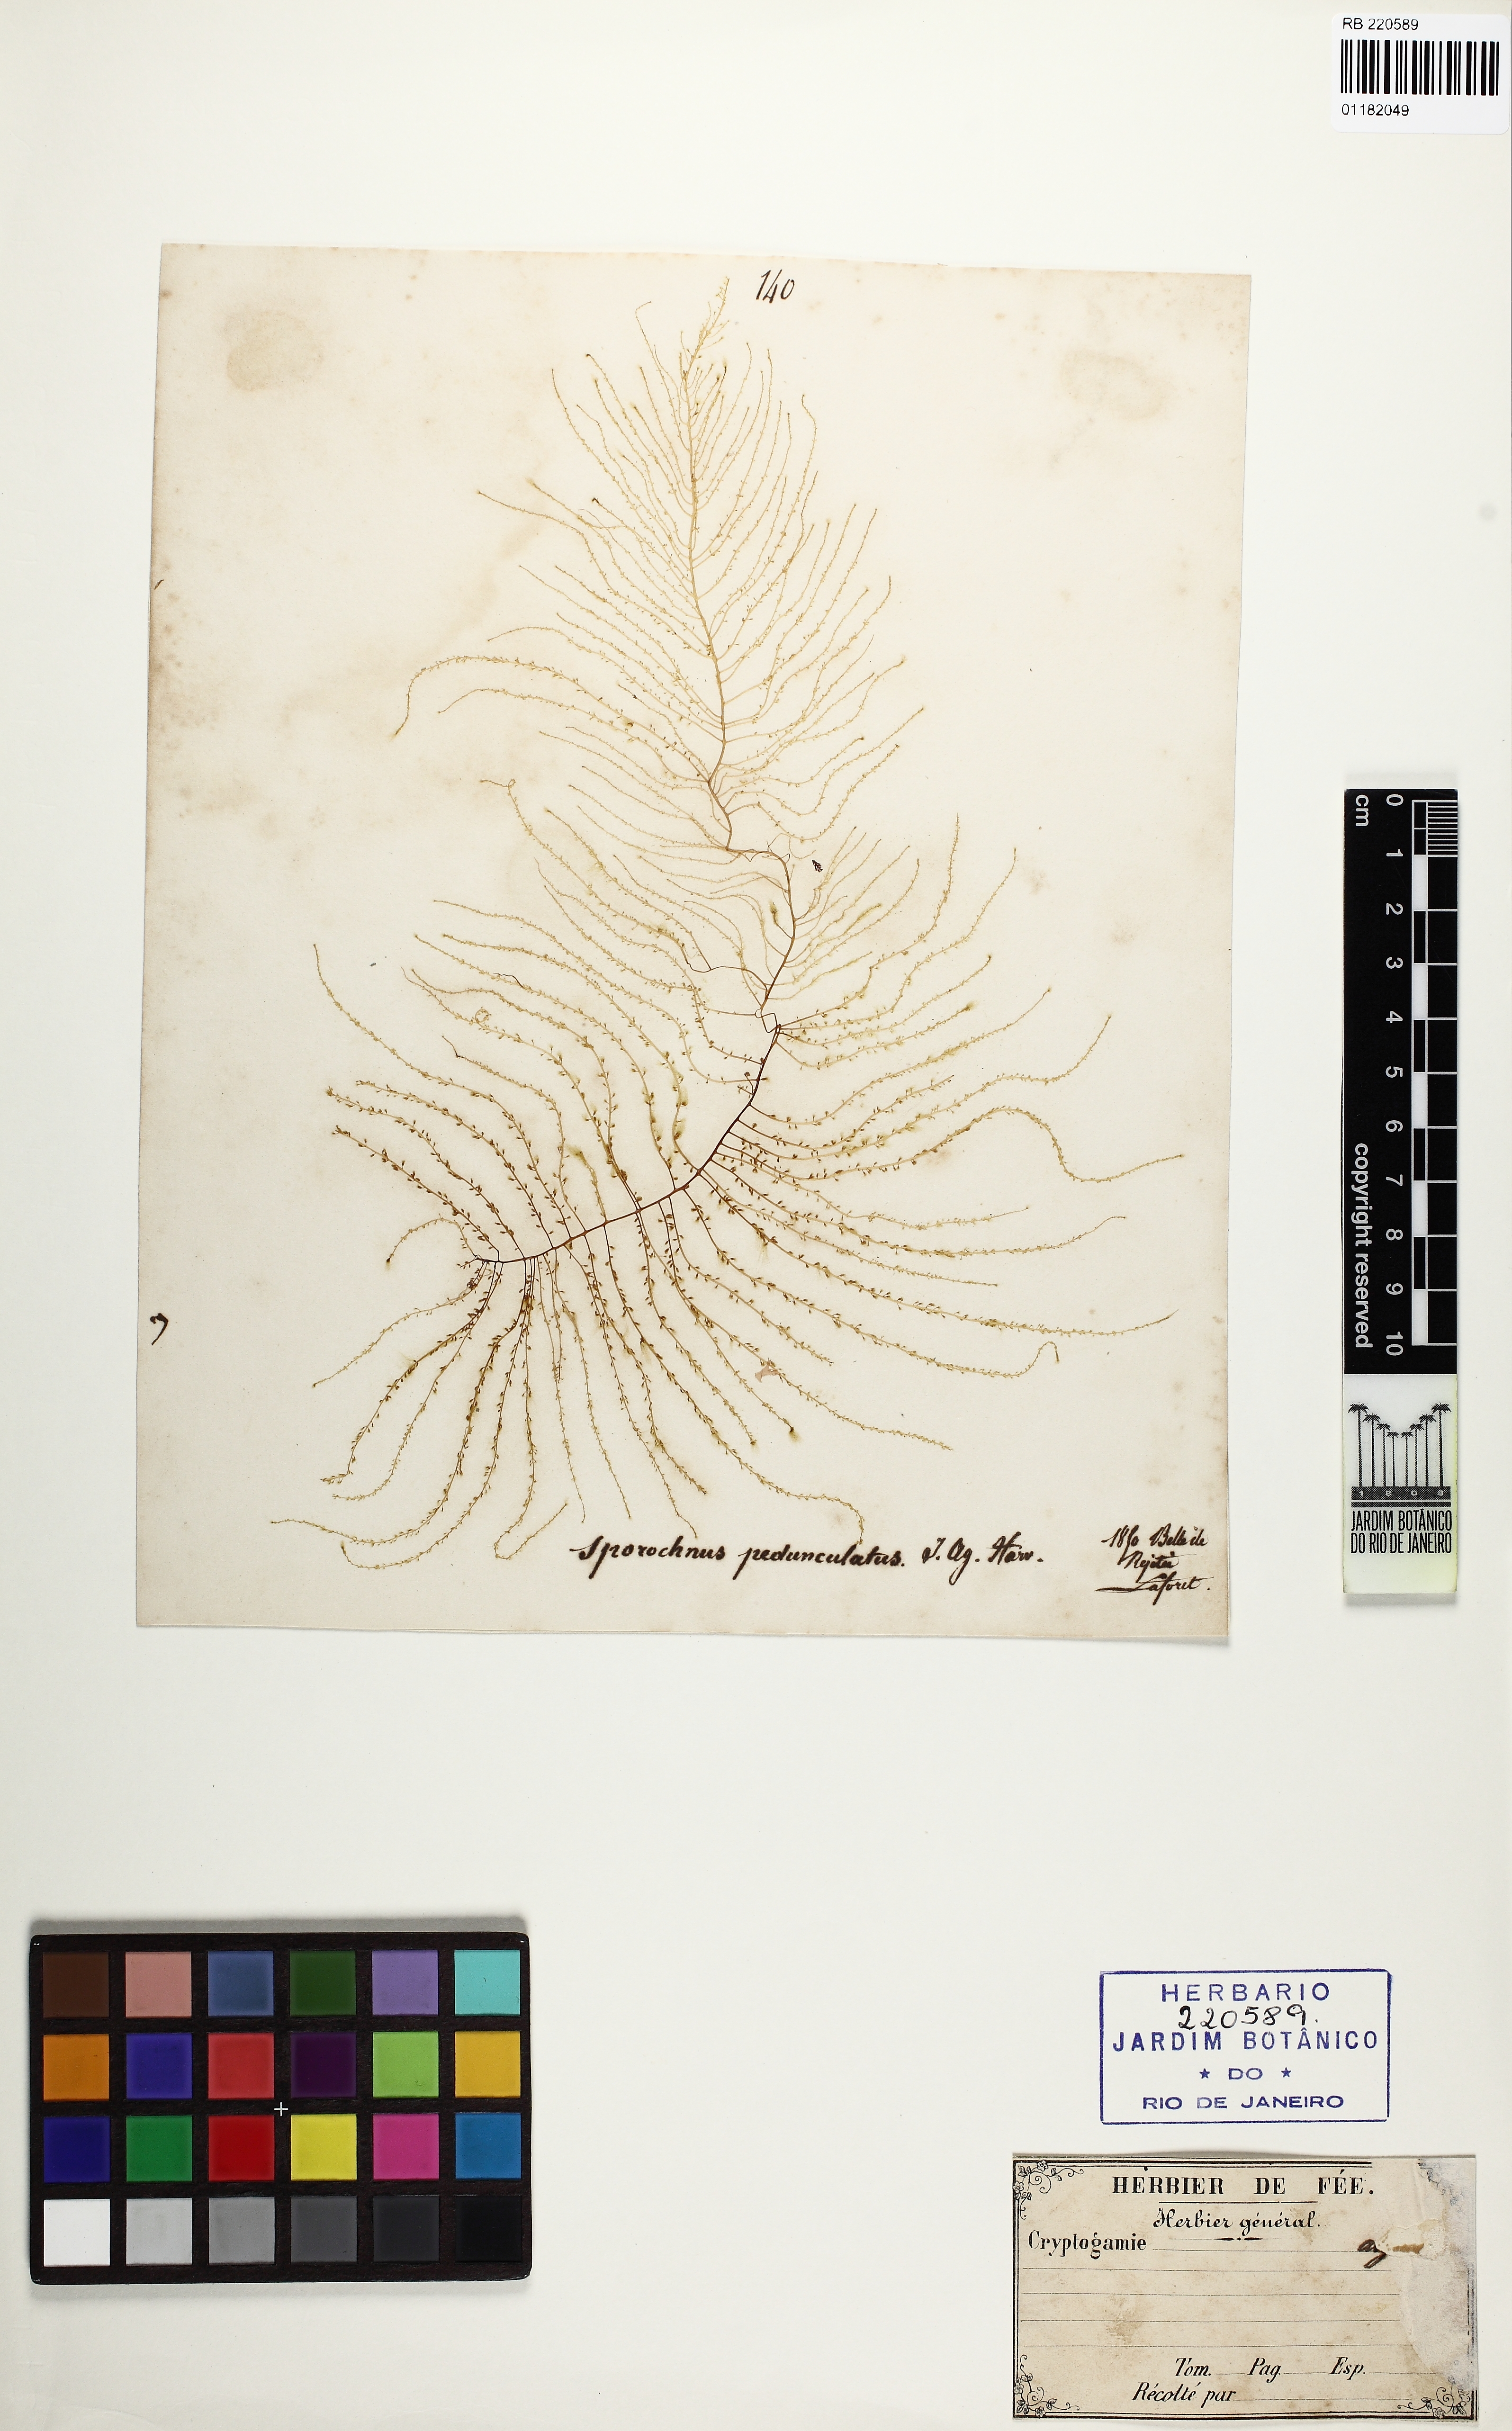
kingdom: Chromista
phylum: Ochrophyta
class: Phaeophyceae
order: Sporochnales
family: Sporochnaceae
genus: Sporochnus
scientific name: Sporochnus pedunculatus
